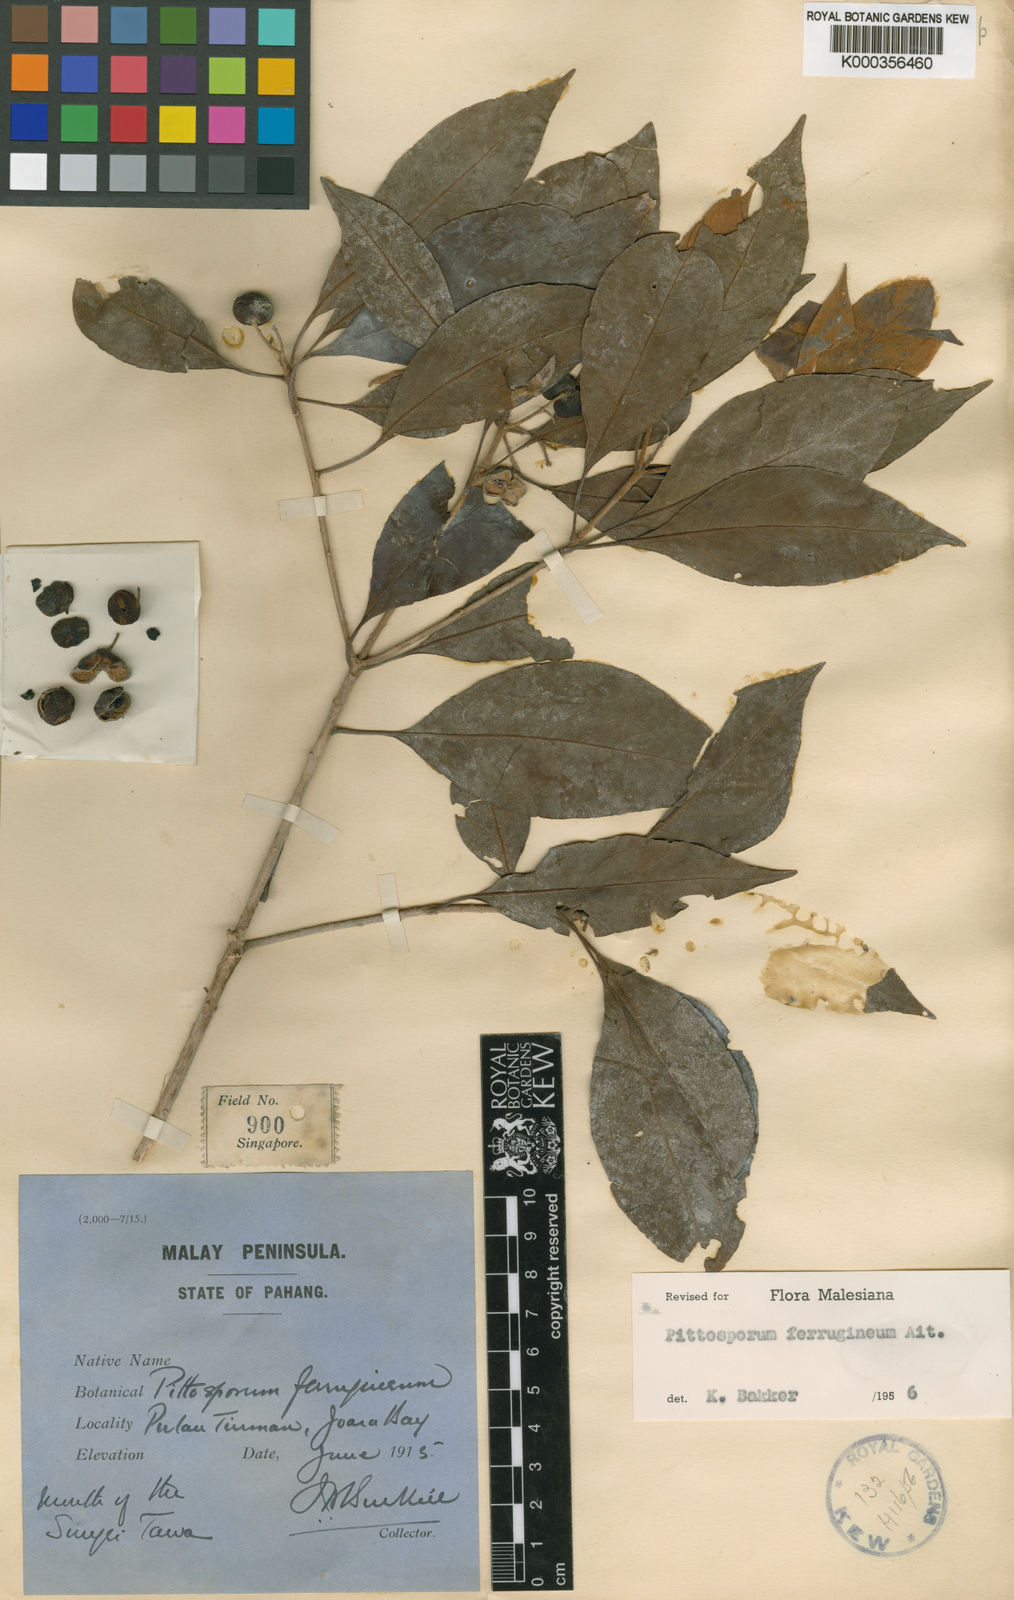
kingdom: Plantae
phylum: Tracheophyta
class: Magnoliopsida
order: Apiales
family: Pittosporaceae
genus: Pittosporum
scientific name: Pittosporum ferrugineum
